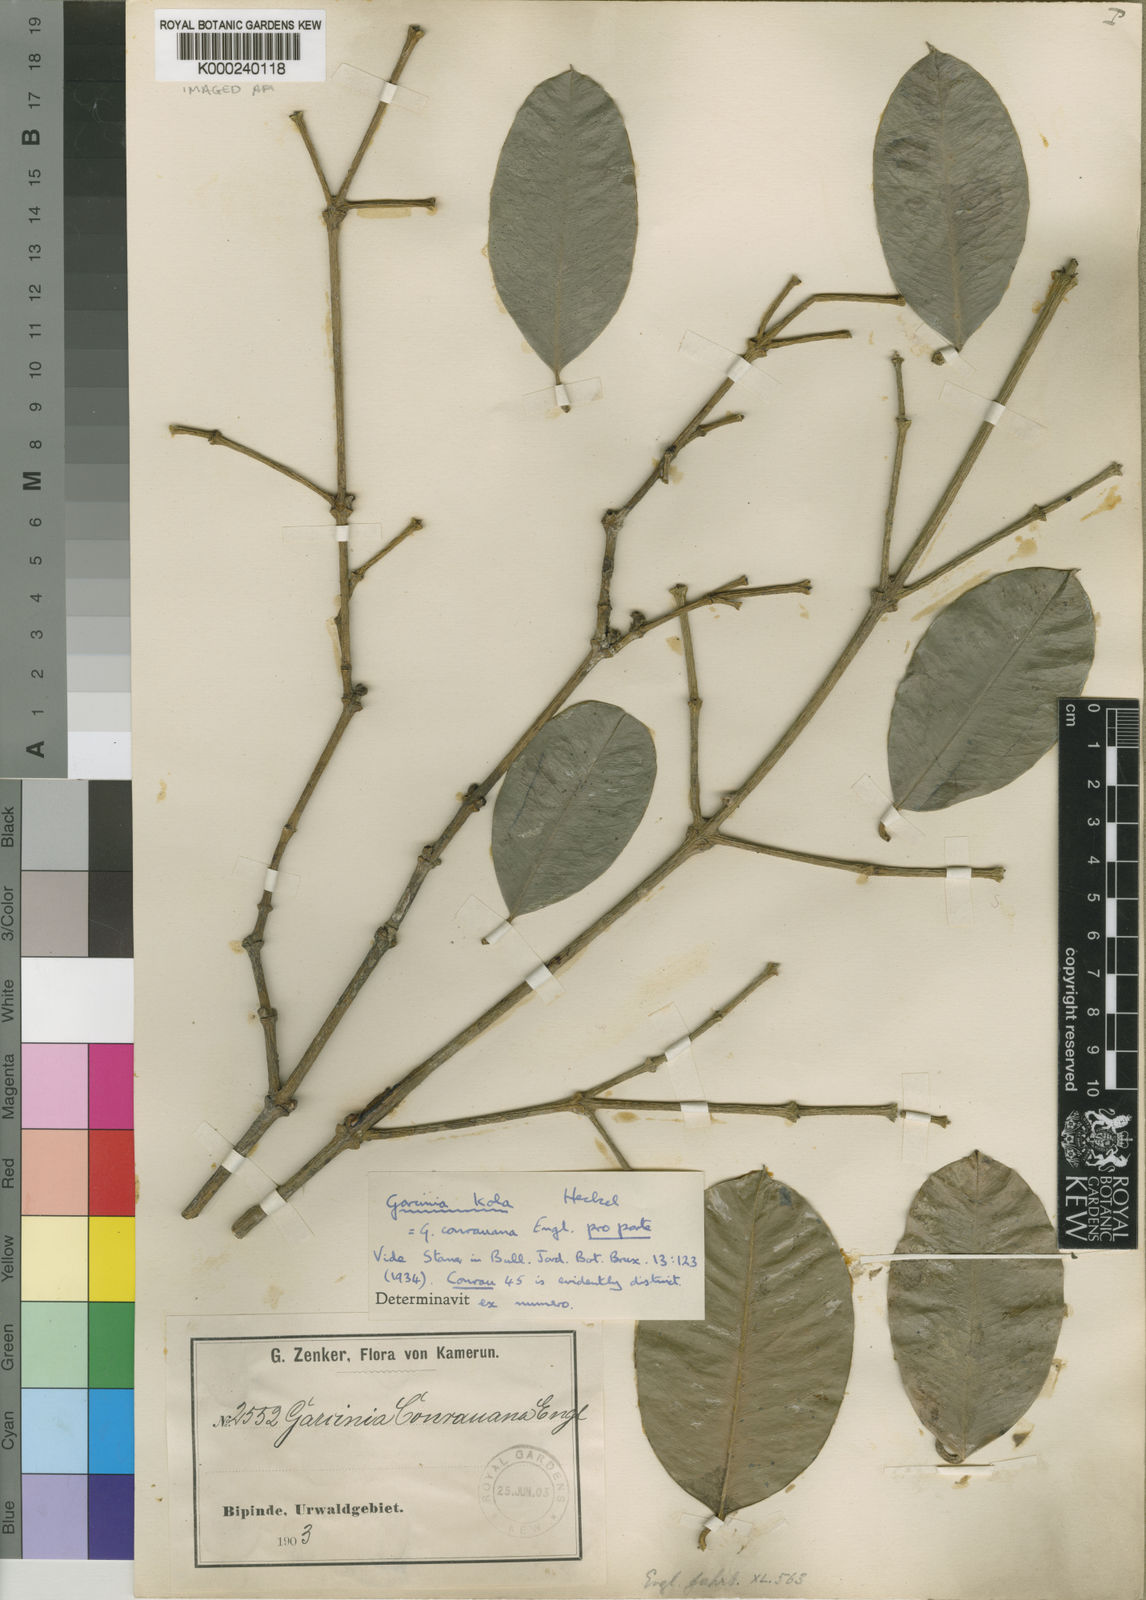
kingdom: Plantae
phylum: Tracheophyta
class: Magnoliopsida
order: Malpighiales
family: Clusiaceae
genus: Garcinia
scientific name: Garcinia conrauana
